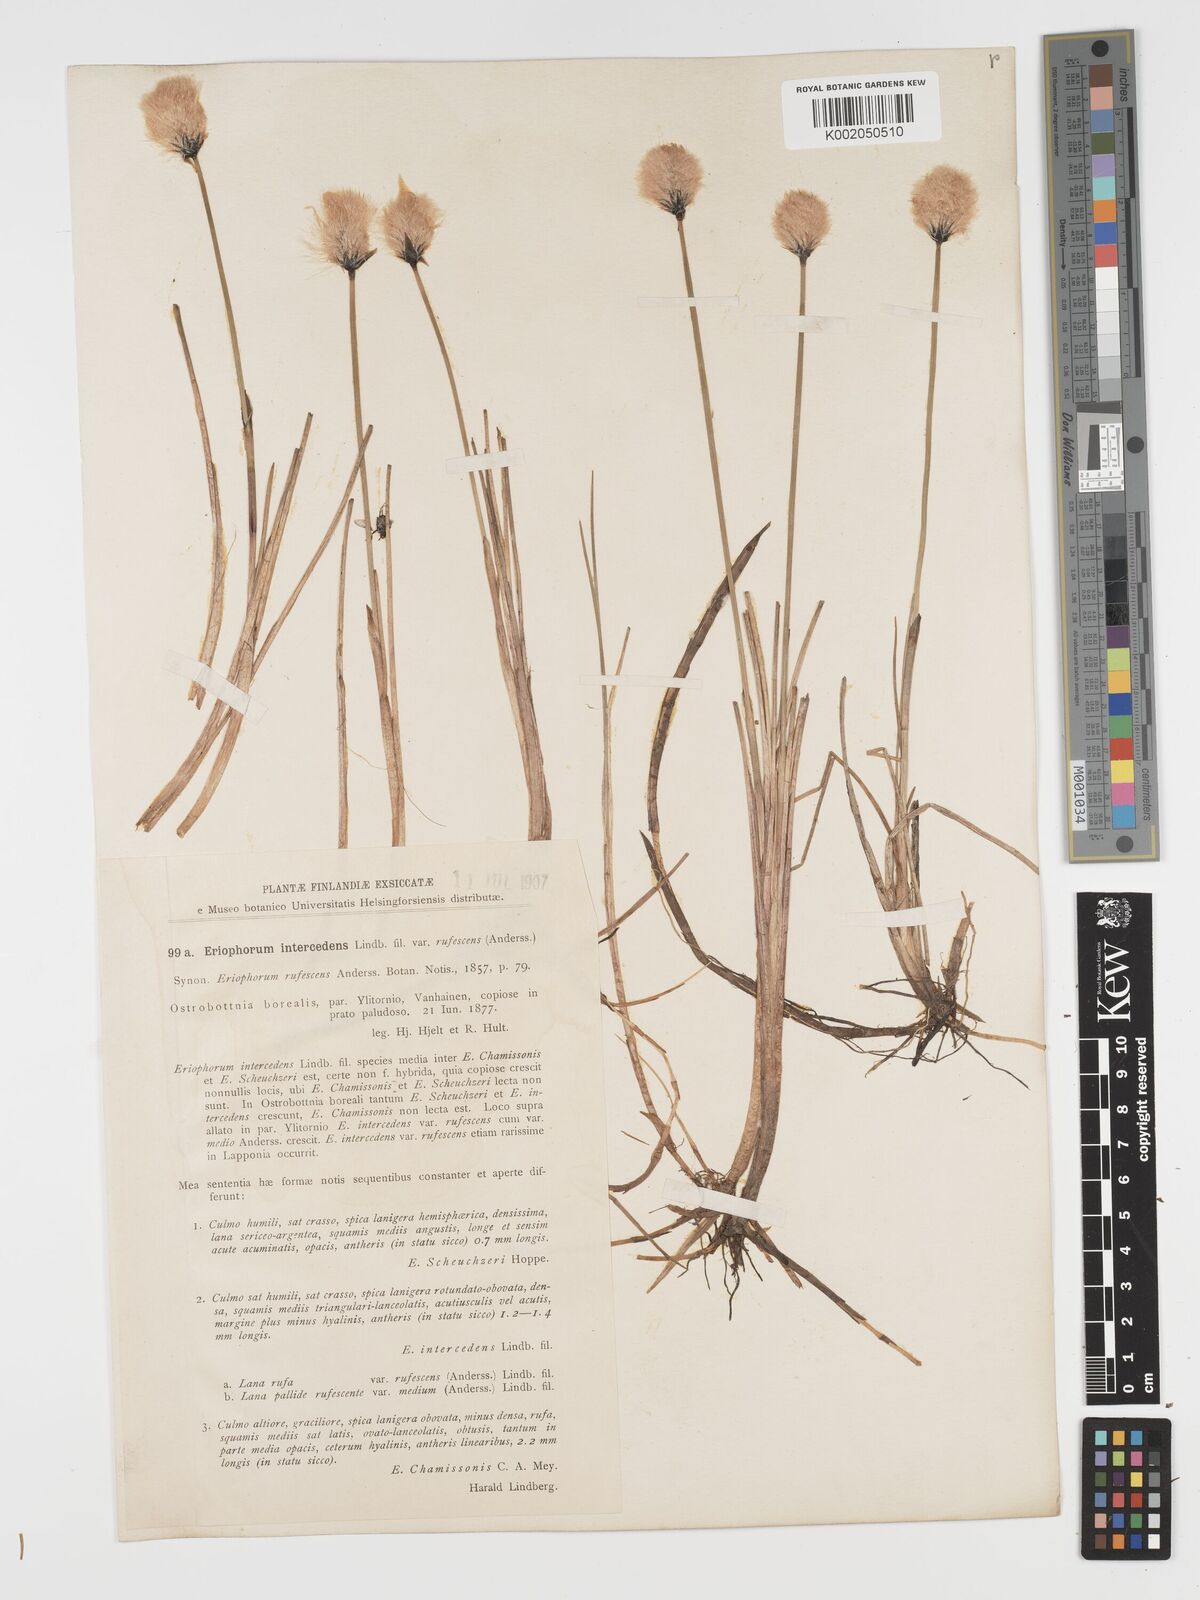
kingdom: Plantae
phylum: Tracheophyta
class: Liliopsida
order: Poales
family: Cyperaceae
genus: Eriophorum
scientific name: Eriophorum medium
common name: Intermediate cottongrass
